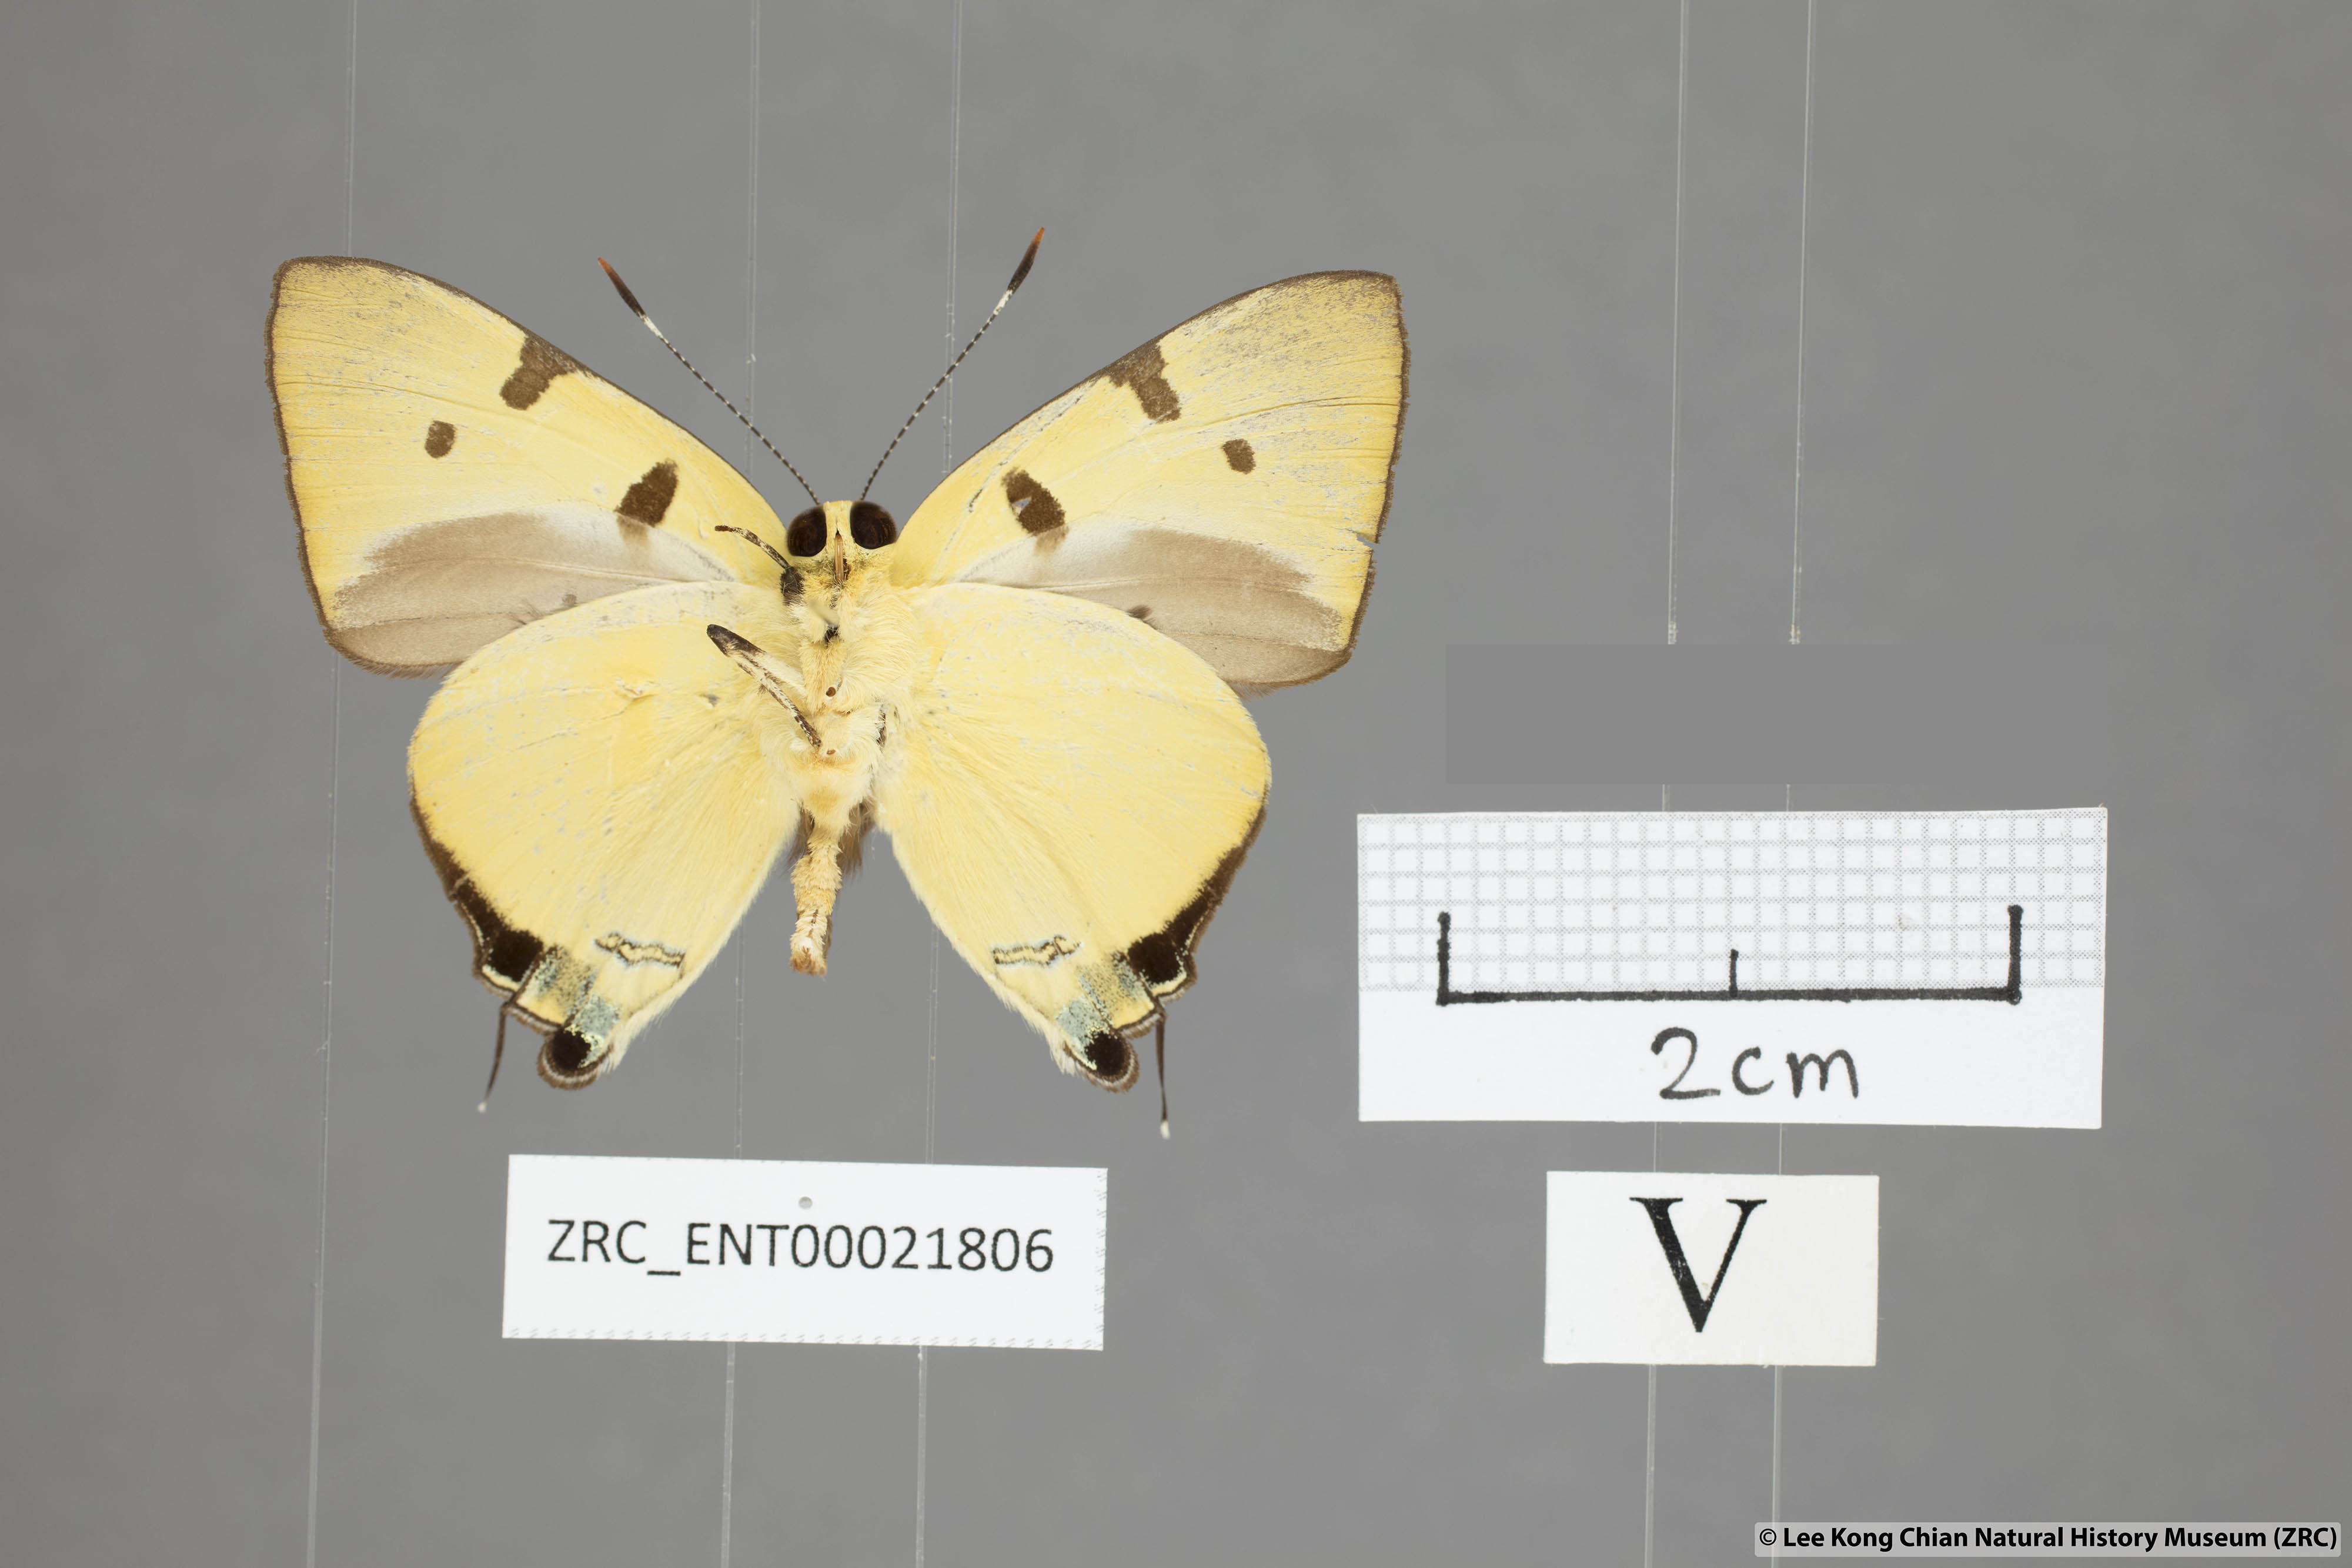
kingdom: Animalia
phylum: Arthropoda
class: Insecta
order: Lepidoptera
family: Lycaenidae
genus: Rapala
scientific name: Rapala domitia
